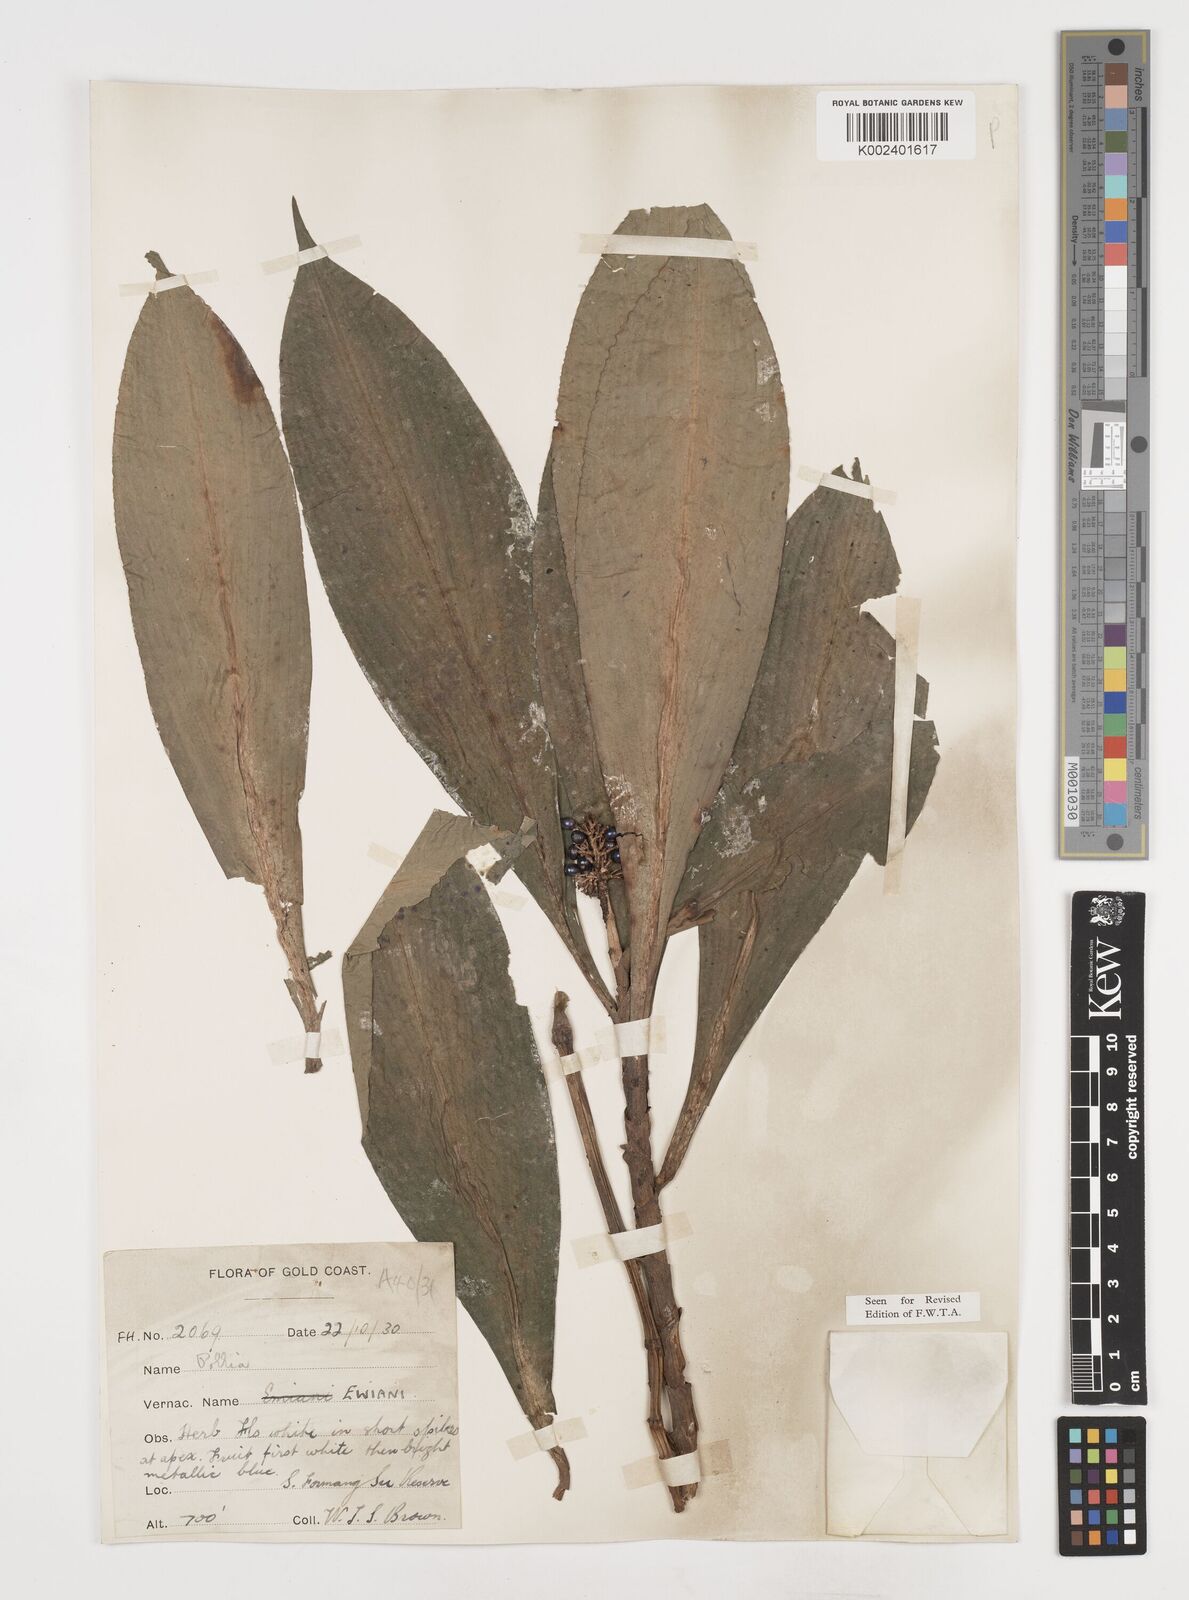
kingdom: Plantae
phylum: Tracheophyta
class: Liliopsida
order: Commelinales
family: Commelinaceae
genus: Pollia
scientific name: Pollia condensata
